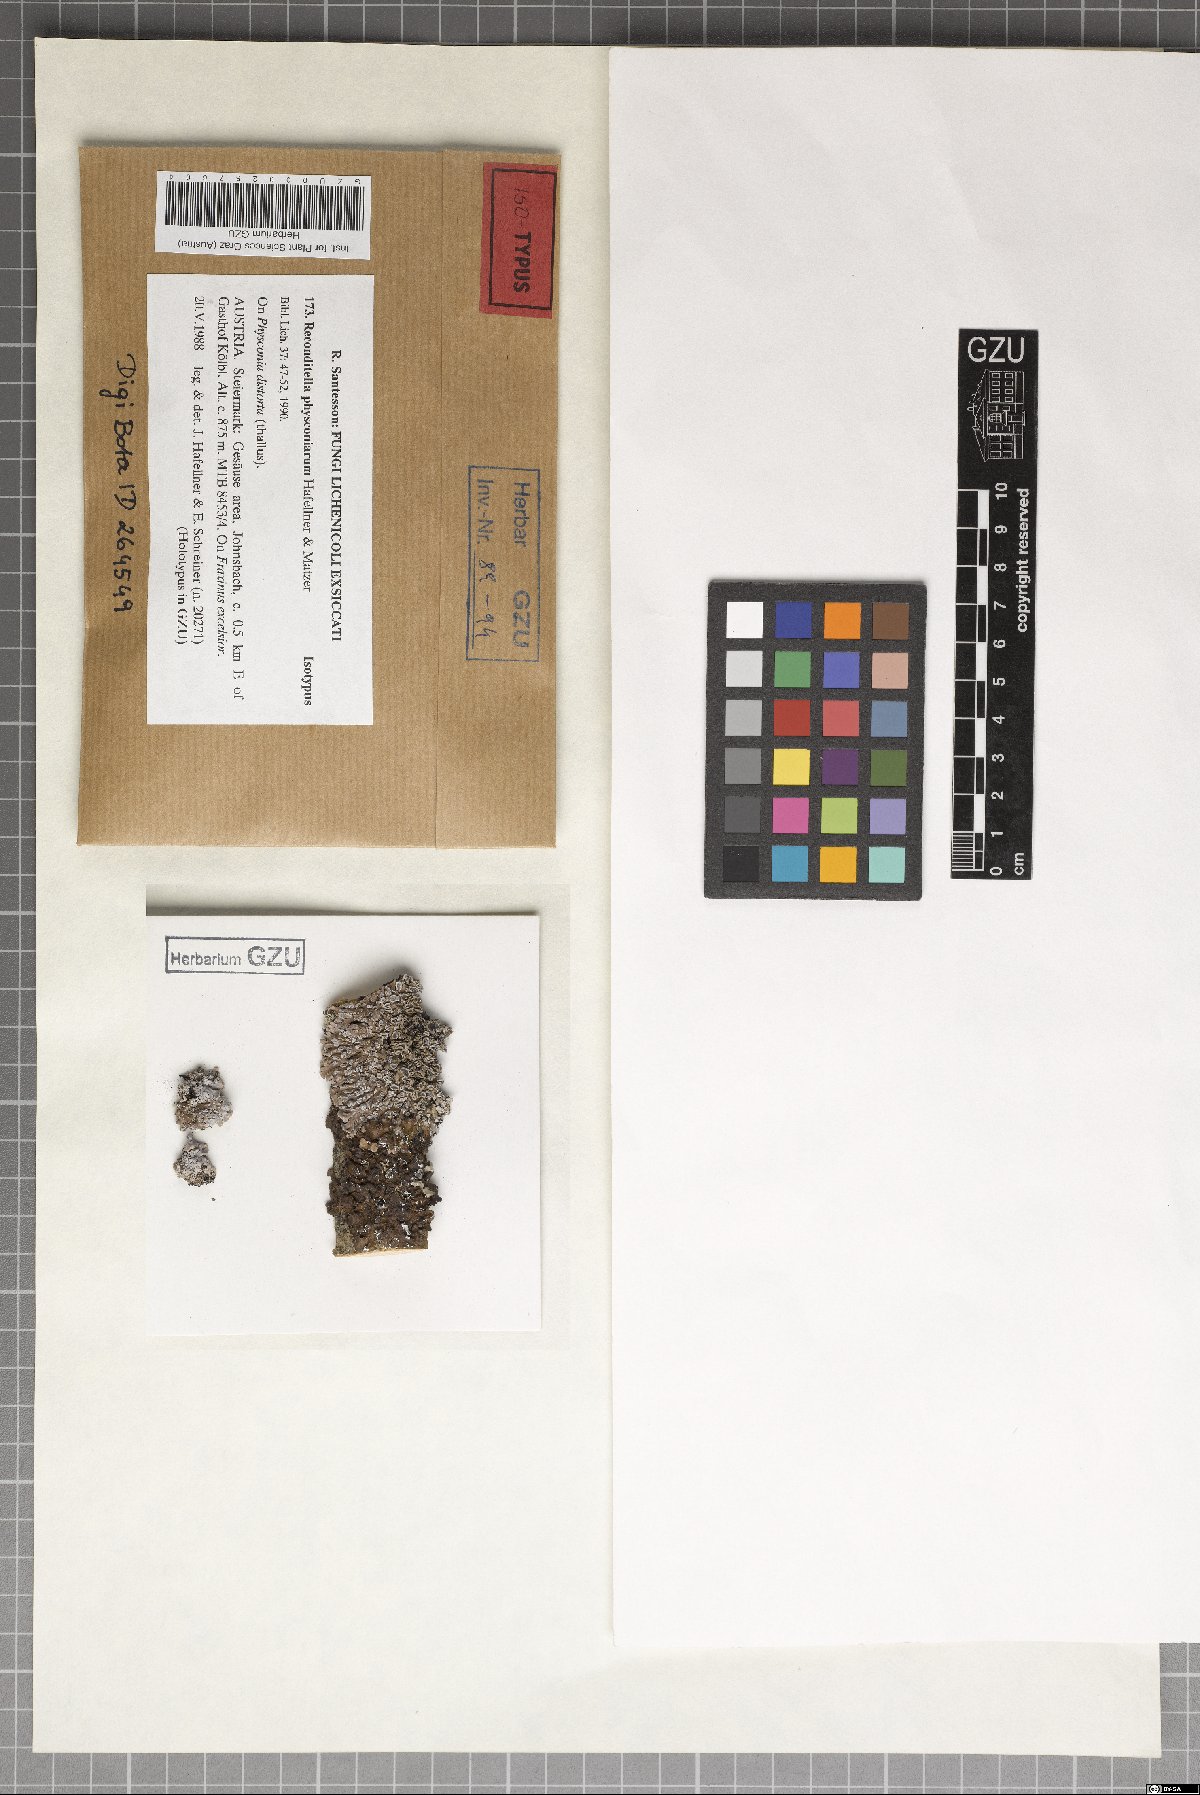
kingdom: Fungi
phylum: Ascomycota
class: Sordariomycetes
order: Sordariales
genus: Reconditella
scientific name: Reconditella physconiarum
